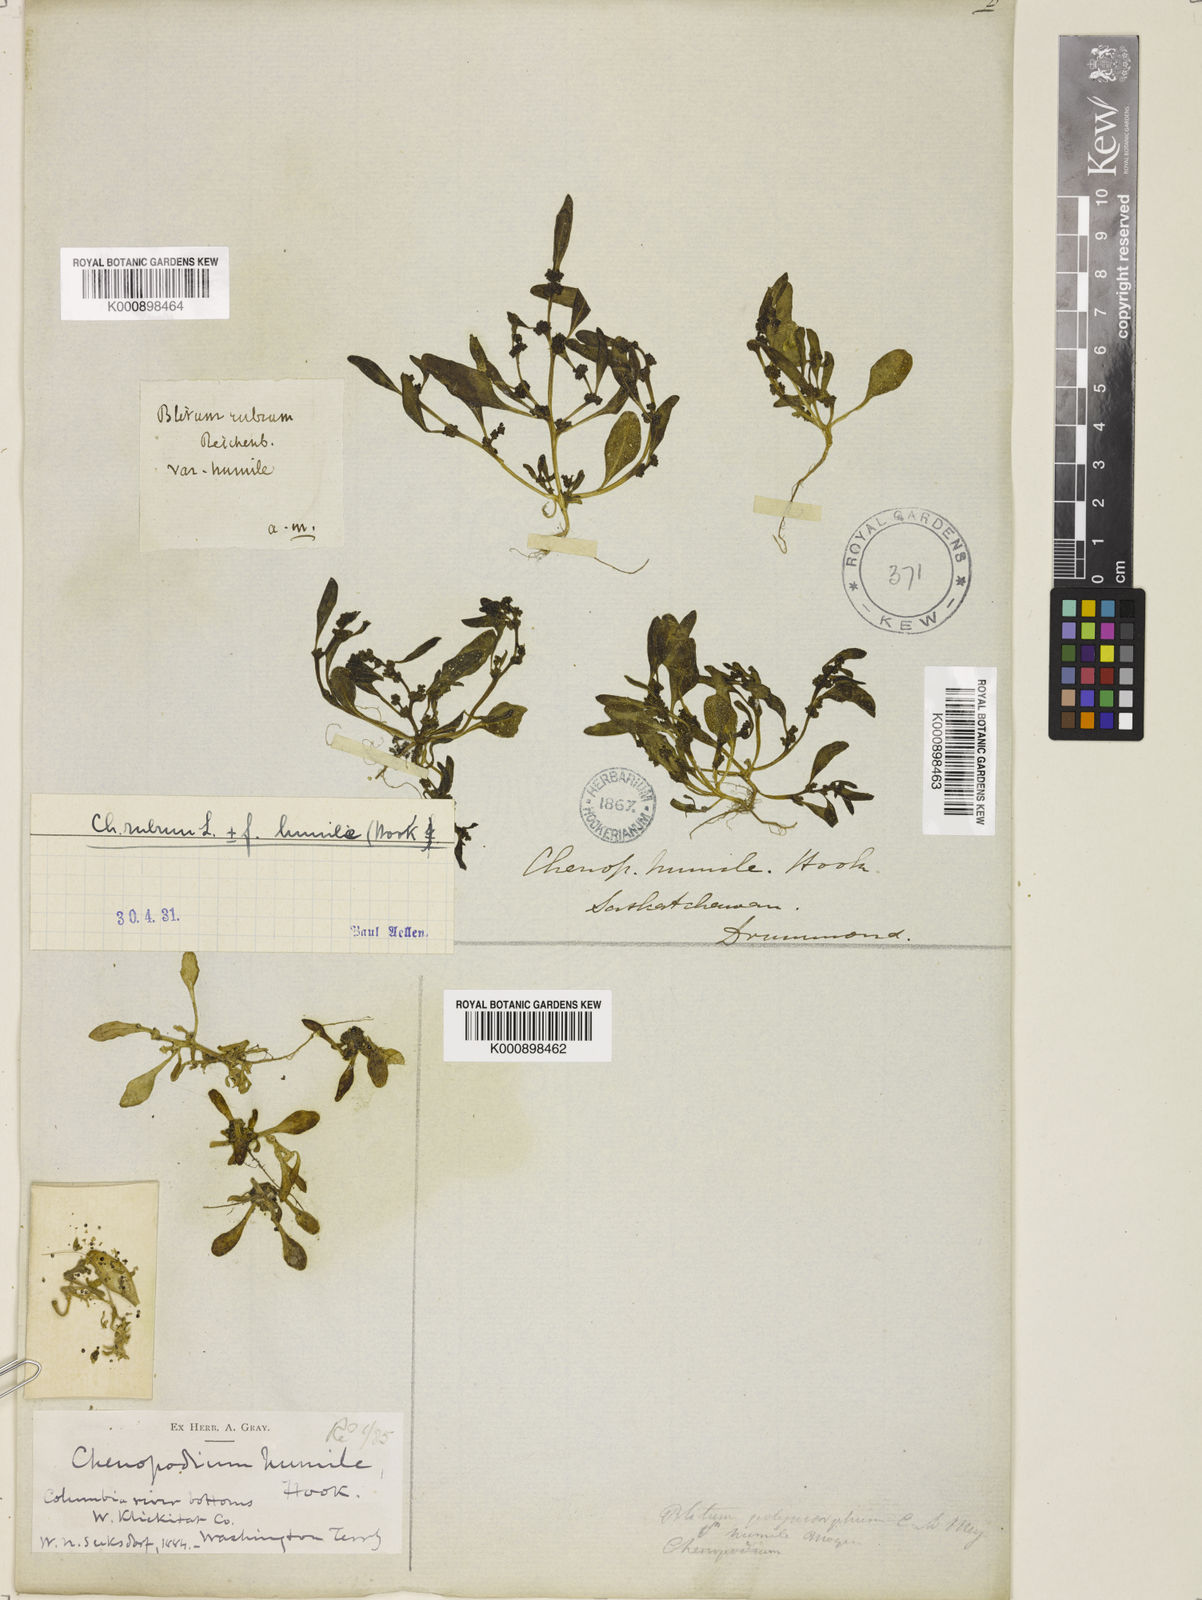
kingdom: Plantae
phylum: Tracheophyta
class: Magnoliopsida
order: Caryophyllales
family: Amaranthaceae
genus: Oxybasis
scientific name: Oxybasis rubra
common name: Red goosefoot
